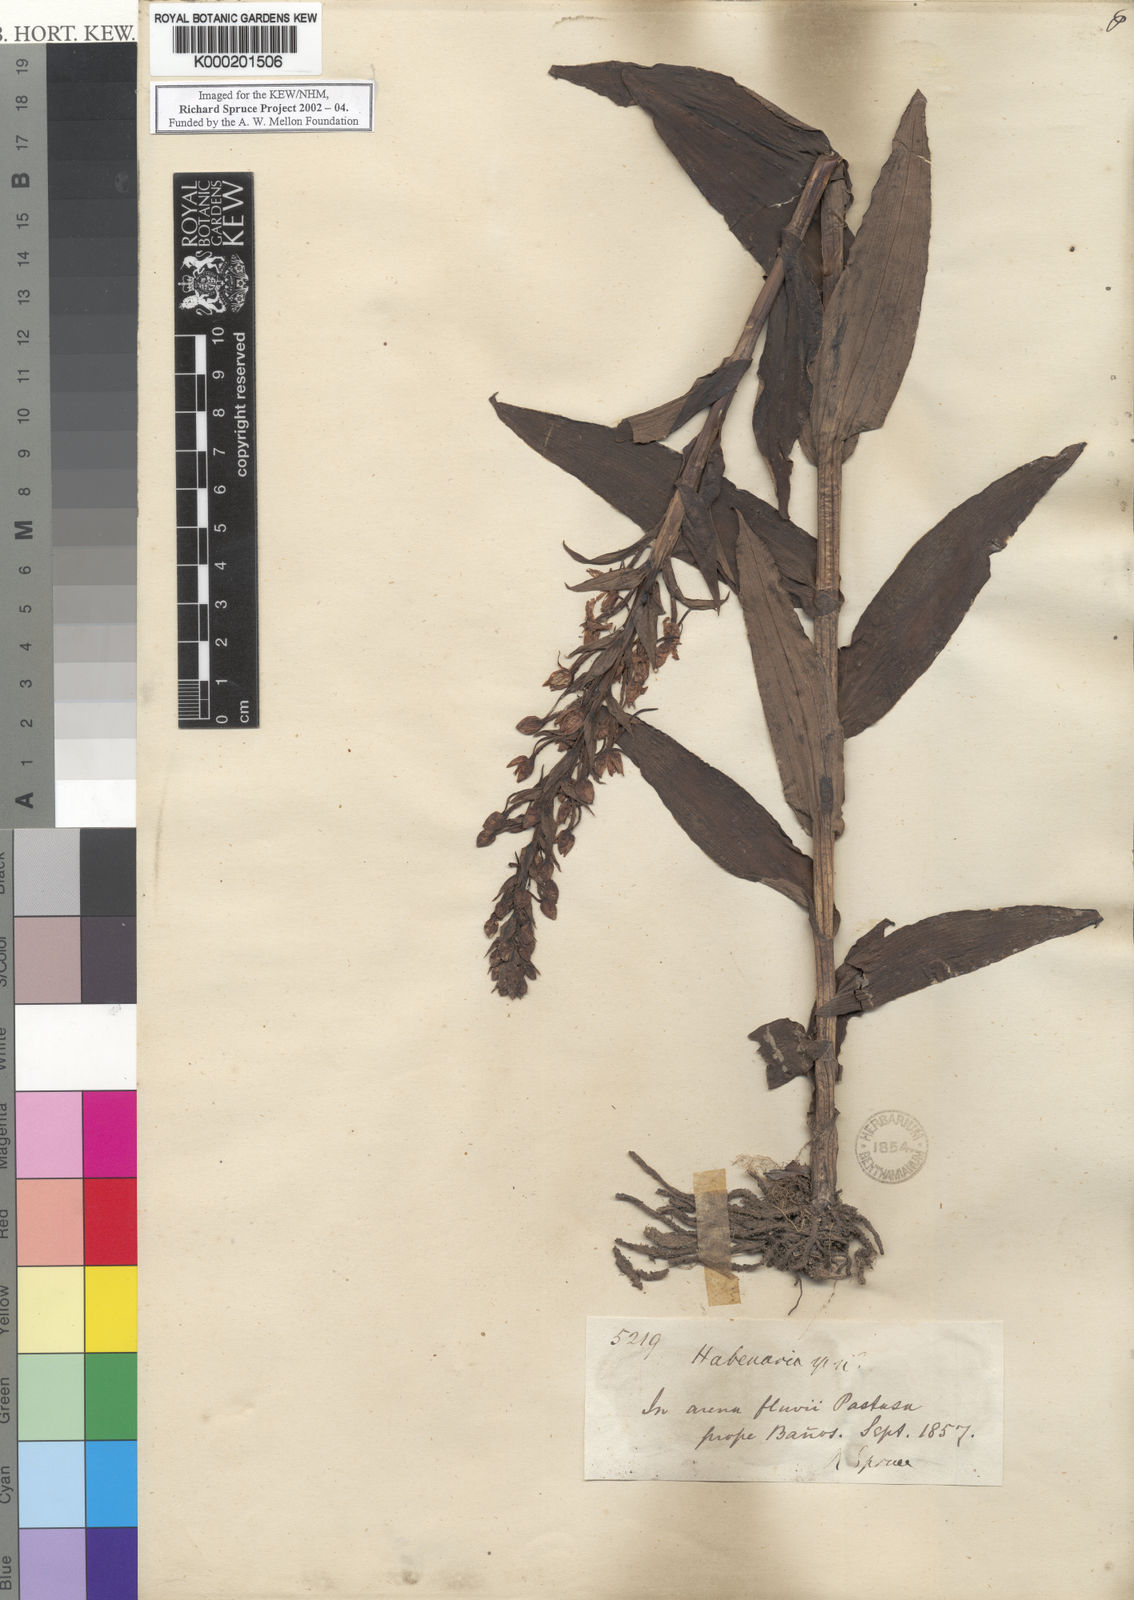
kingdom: Plantae
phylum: Tracheophyta
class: Liliopsida
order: Asparagales
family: Orchidaceae
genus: Habenaria
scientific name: Habenaria maculosa
